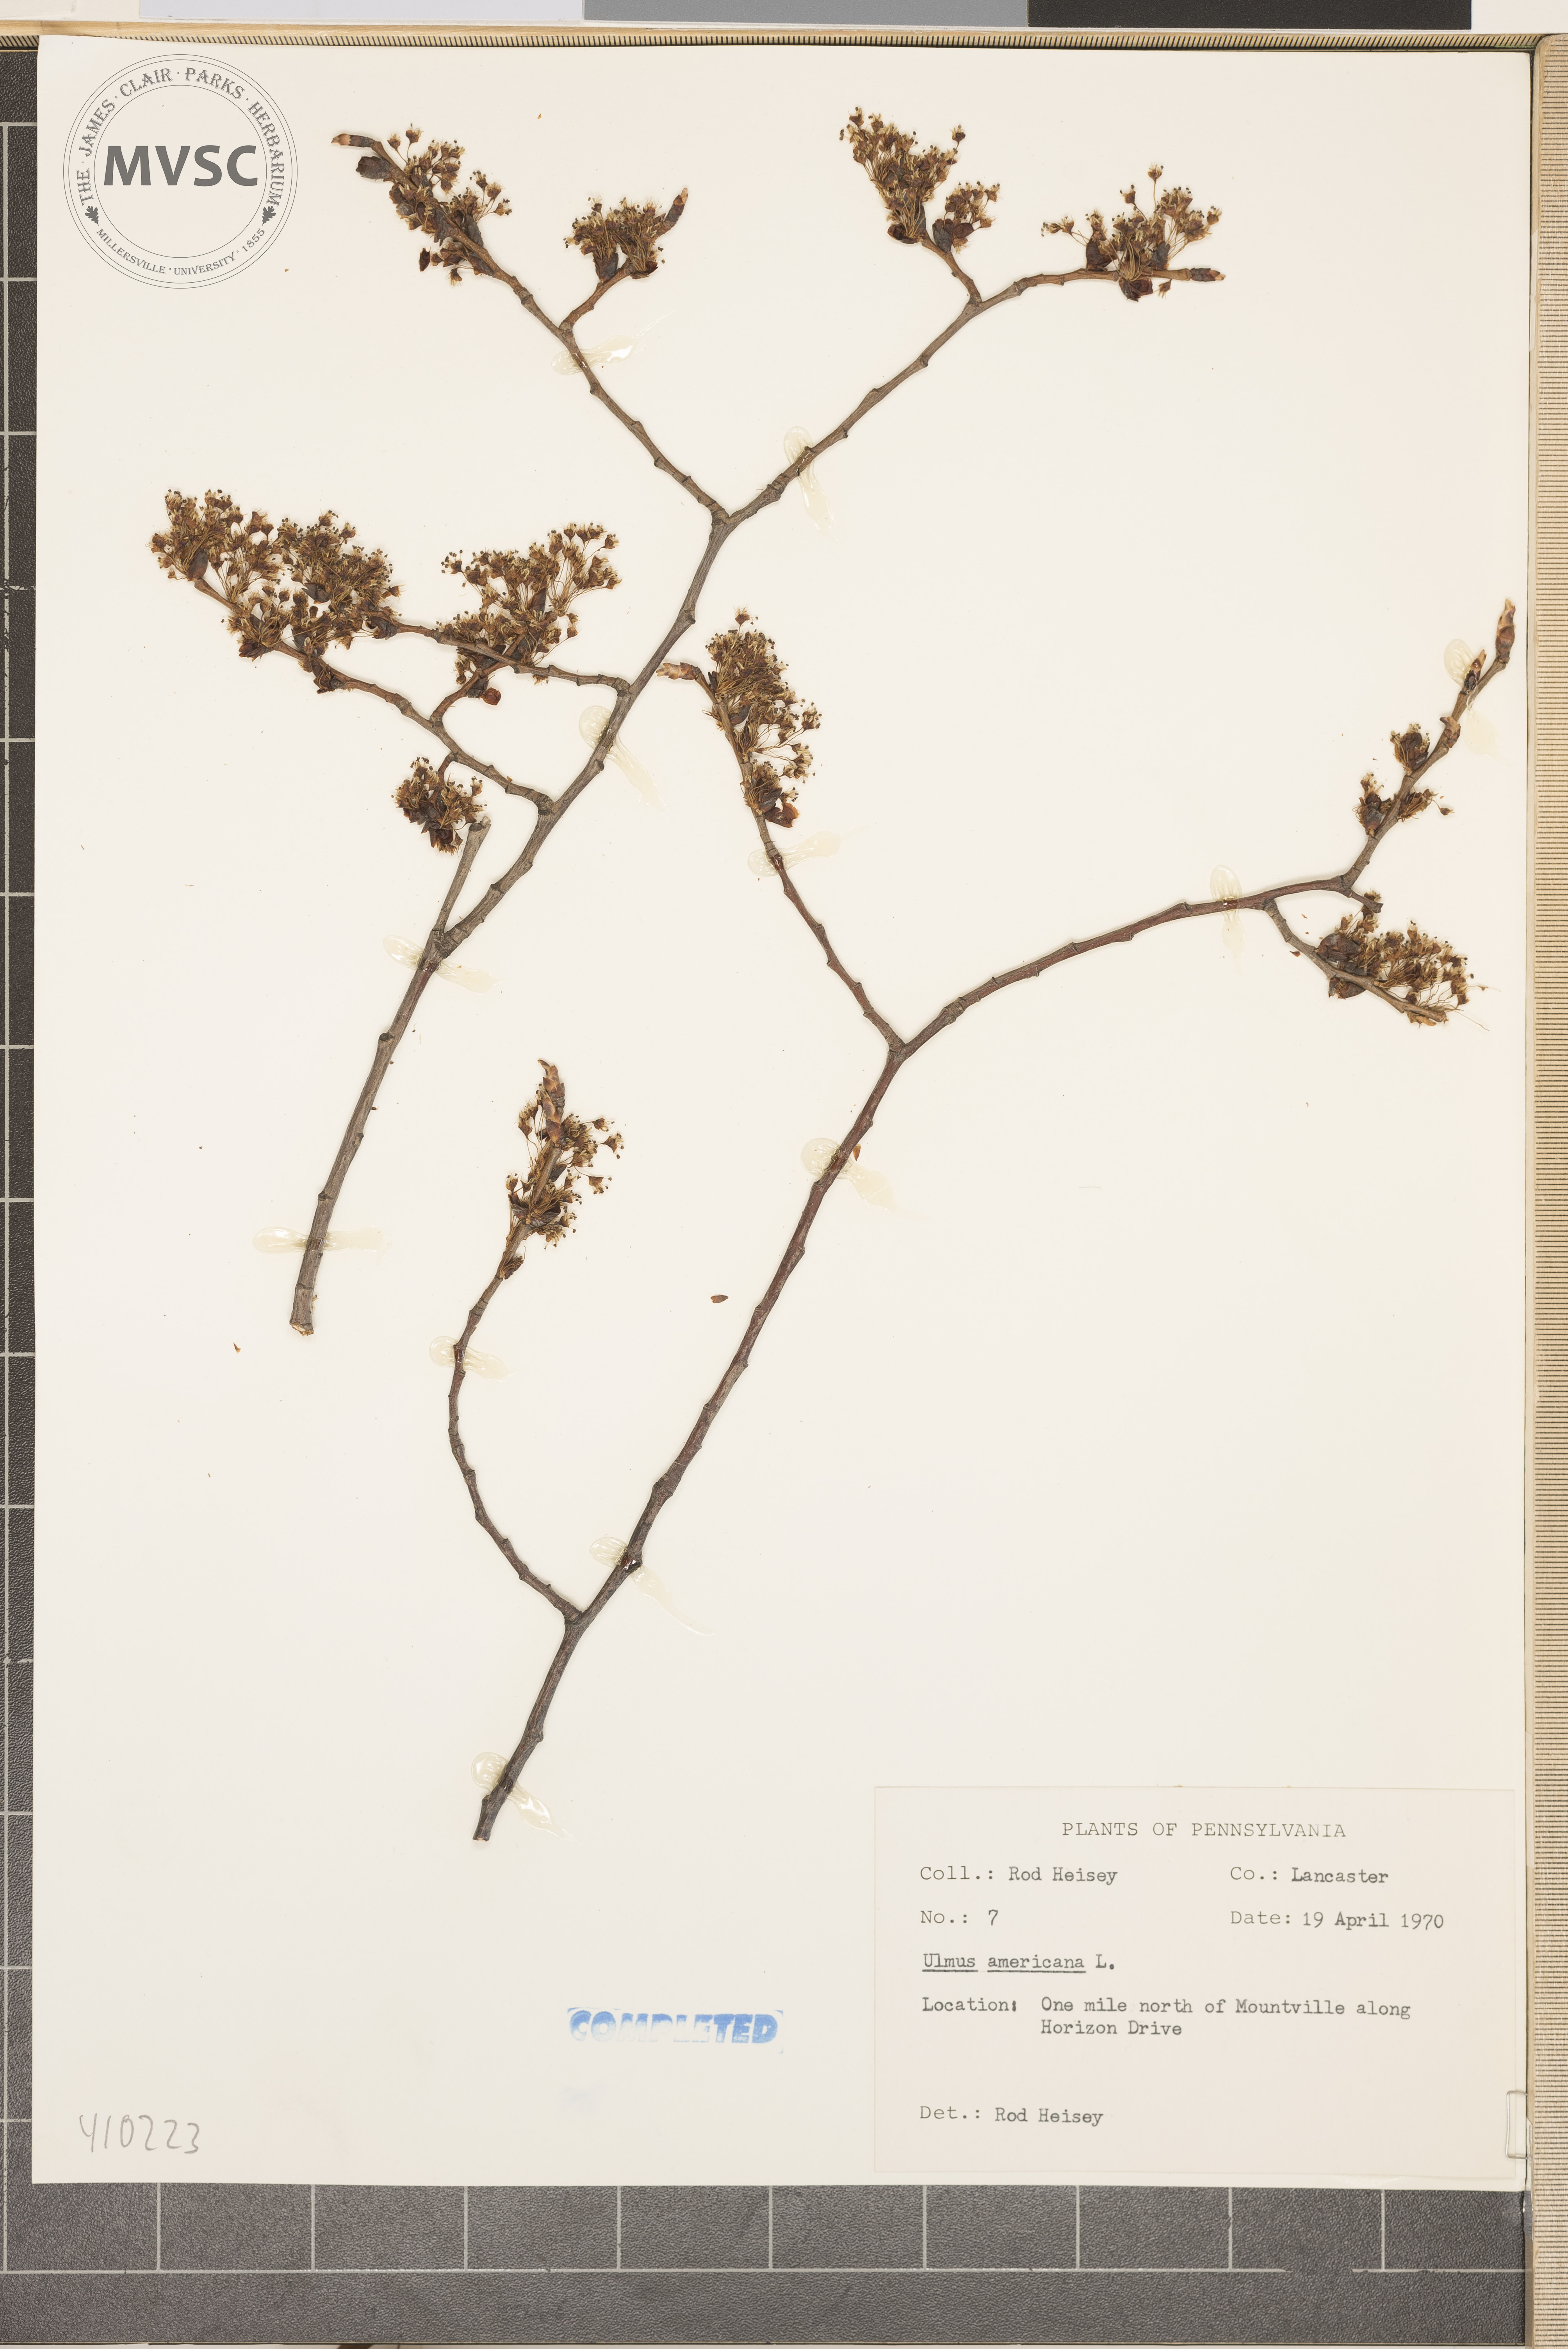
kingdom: Plantae
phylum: Tracheophyta
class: Magnoliopsida
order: Rosales
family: Ulmaceae
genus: Ulmus
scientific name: Ulmus americana
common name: American elm
